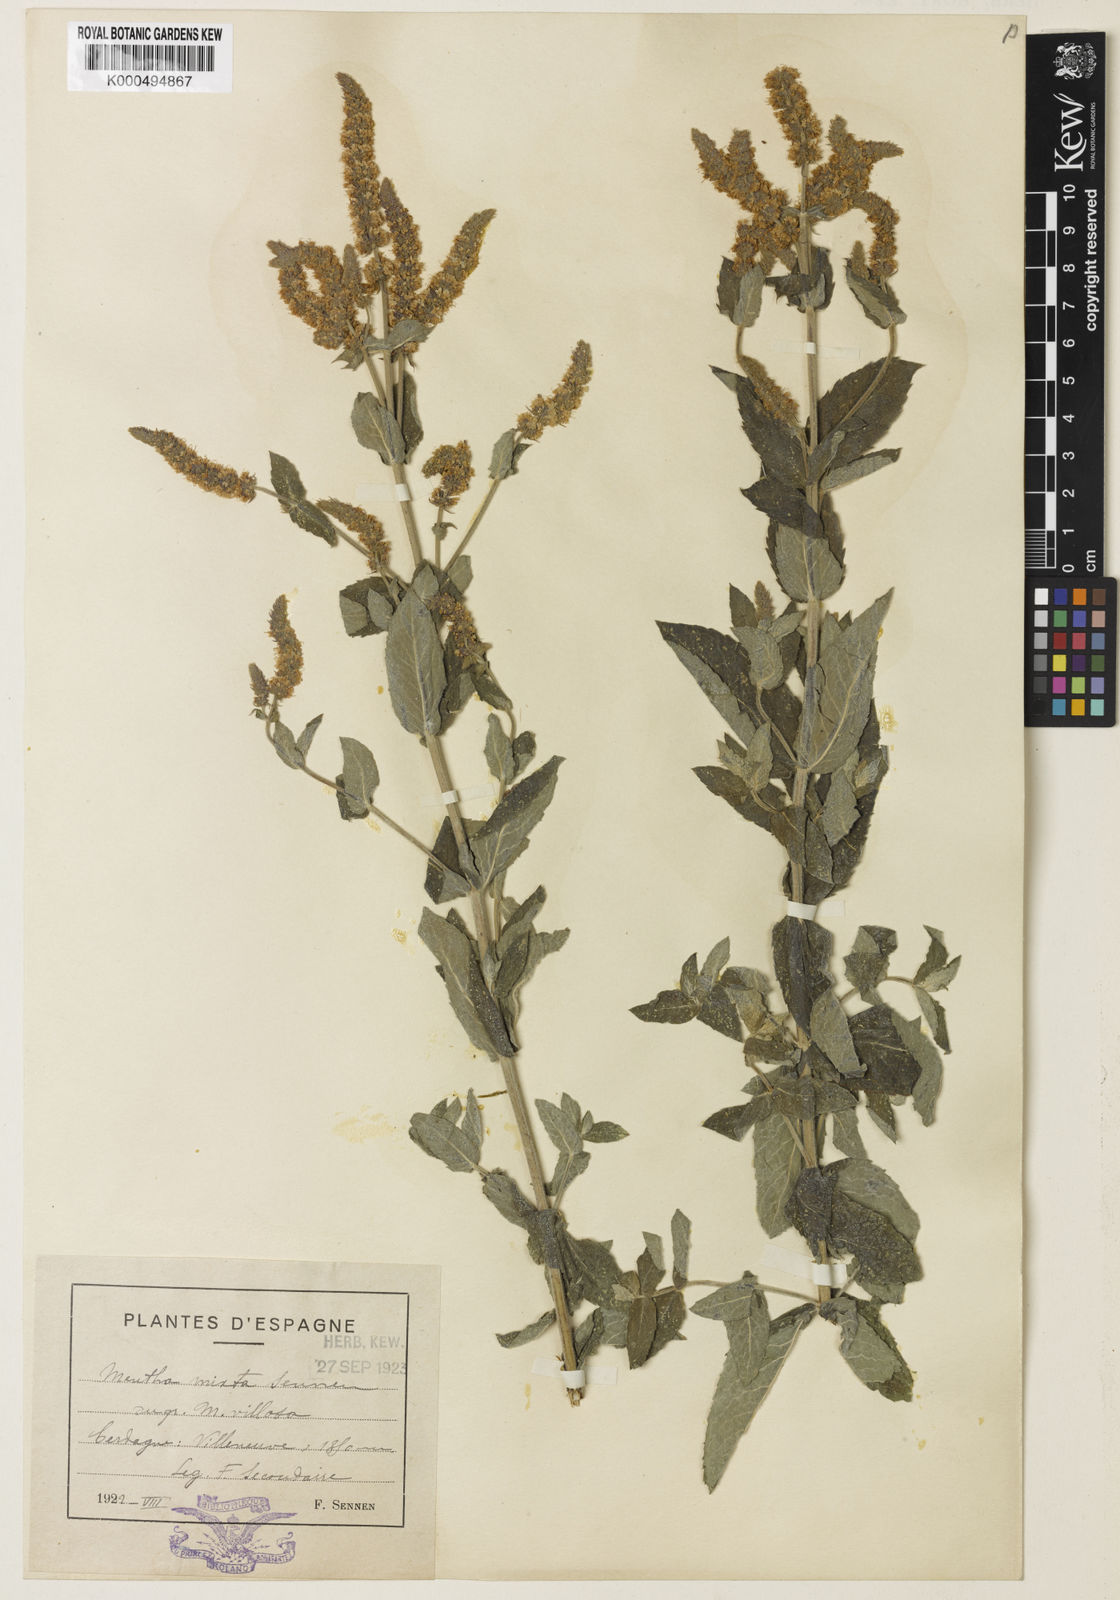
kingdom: Plantae
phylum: Tracheophyta
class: Magnoliopsida
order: Lamiales
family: Lamiaceae
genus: Mentha
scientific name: Mentha rotundifolia
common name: Bigleaf mint
